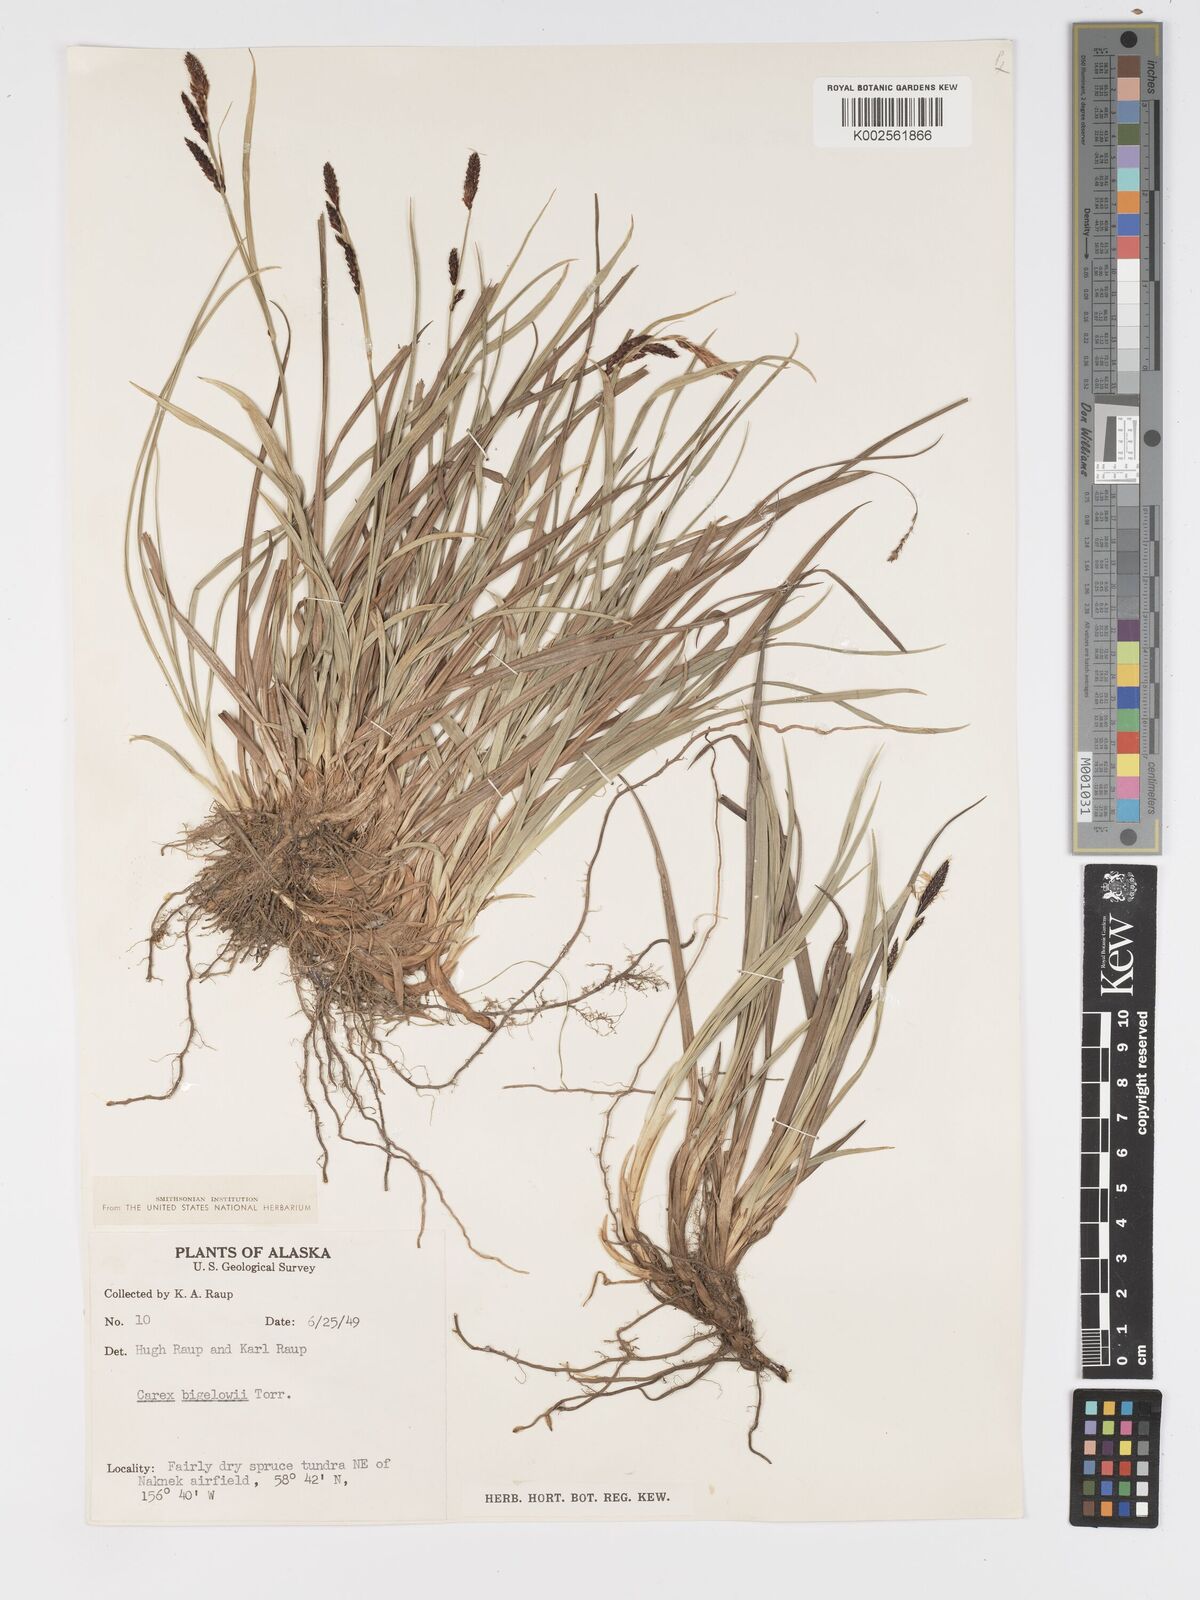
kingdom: Plantae
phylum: Tracheophyta
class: Liliopsida
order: Poales
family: Cyperaceae
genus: Carex
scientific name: Carex bigelowii
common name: Stiff sedge
